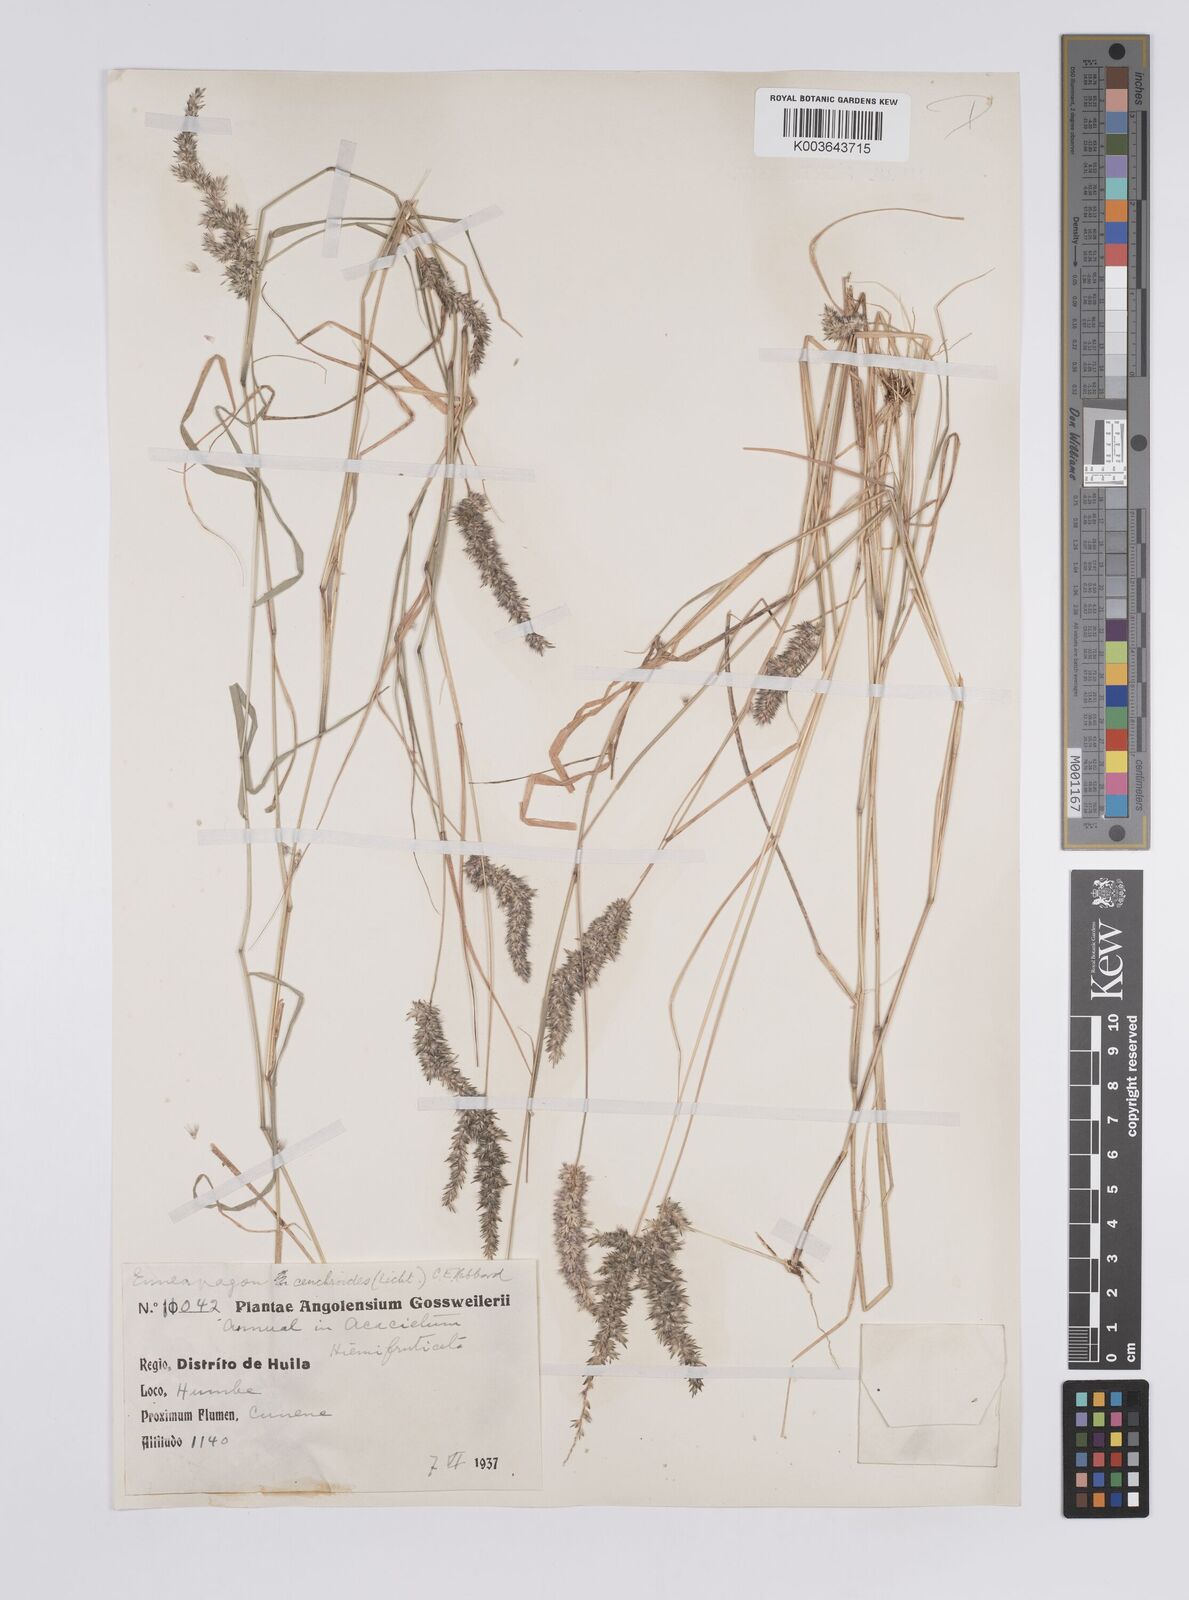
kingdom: Plantae
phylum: Tracheophyta
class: Liliopsida
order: Poales
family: Poaceae
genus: Enneapogon
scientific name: Enneapogon cenchroides
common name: Soft feather pappusgrass
